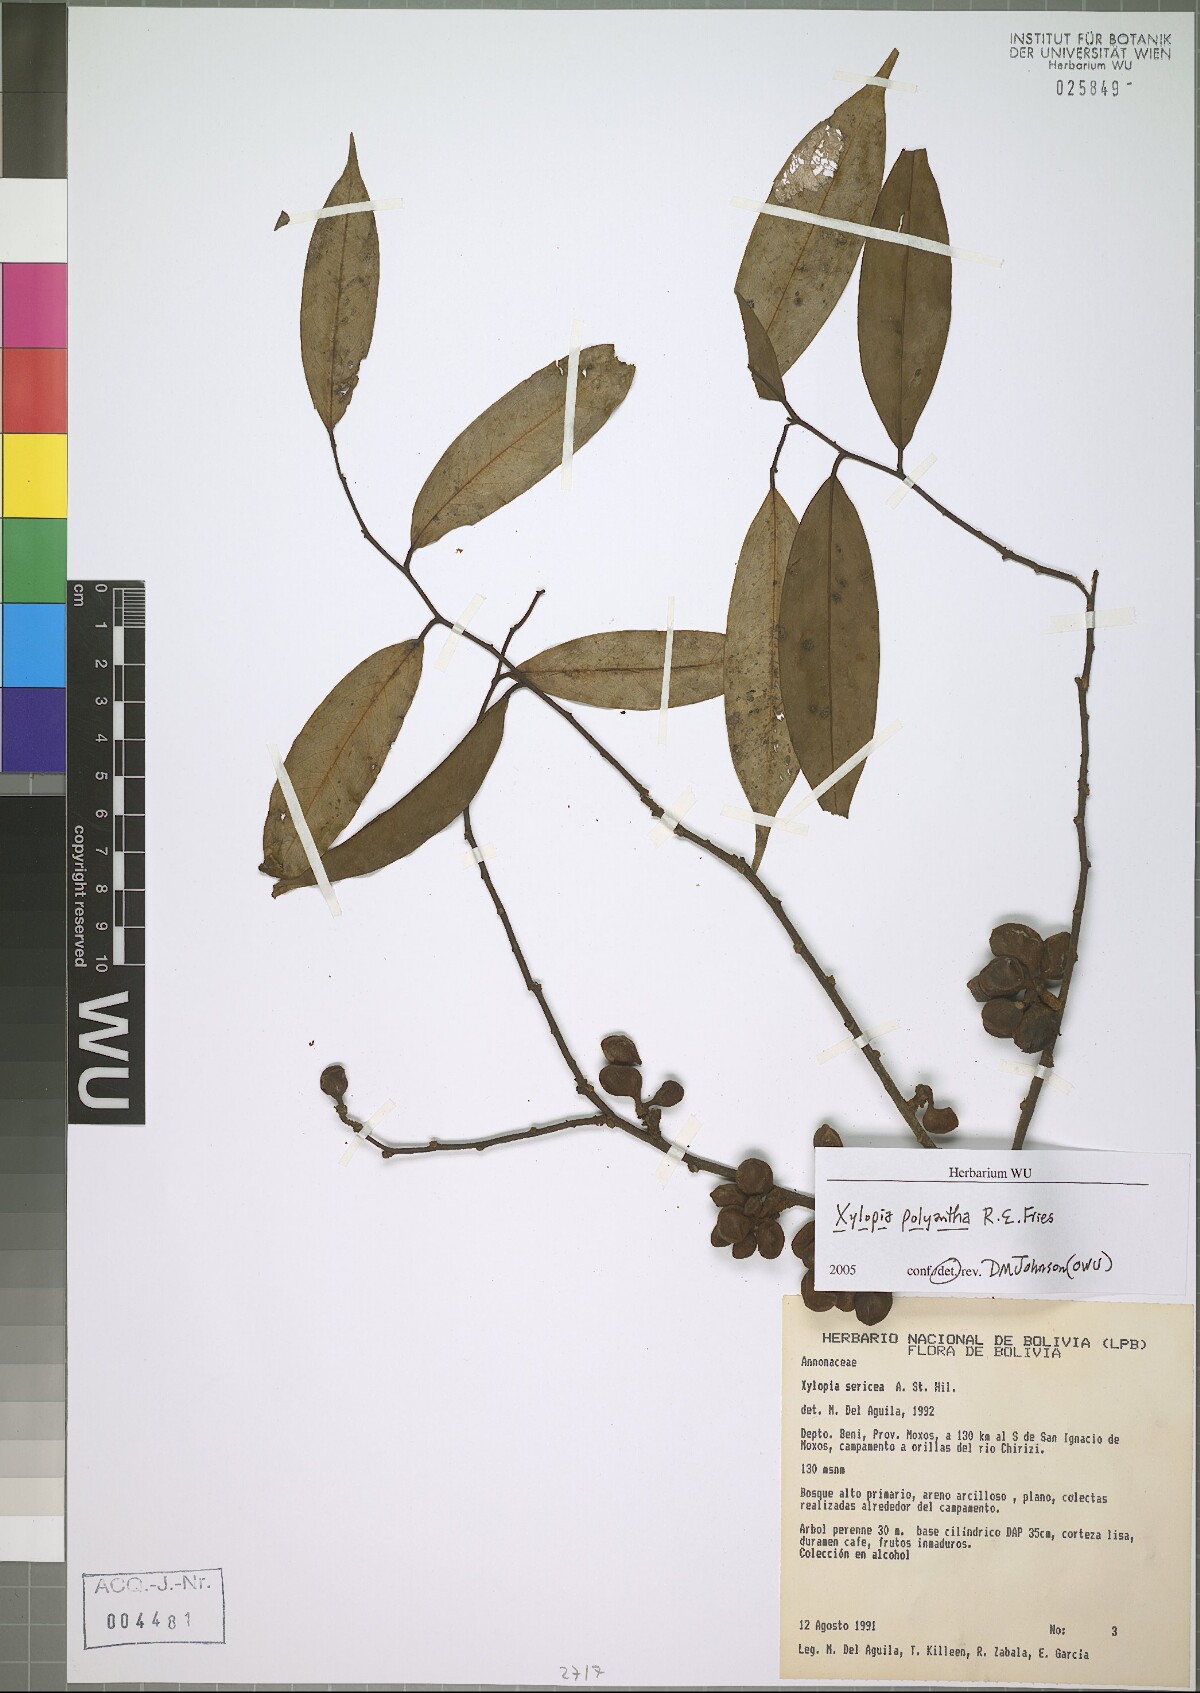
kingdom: Plantae
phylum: Tracheophyta
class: Magnoliopsida
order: Magnoliales
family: Annonaceae
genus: Xylopia
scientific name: Xylopia polyantha
